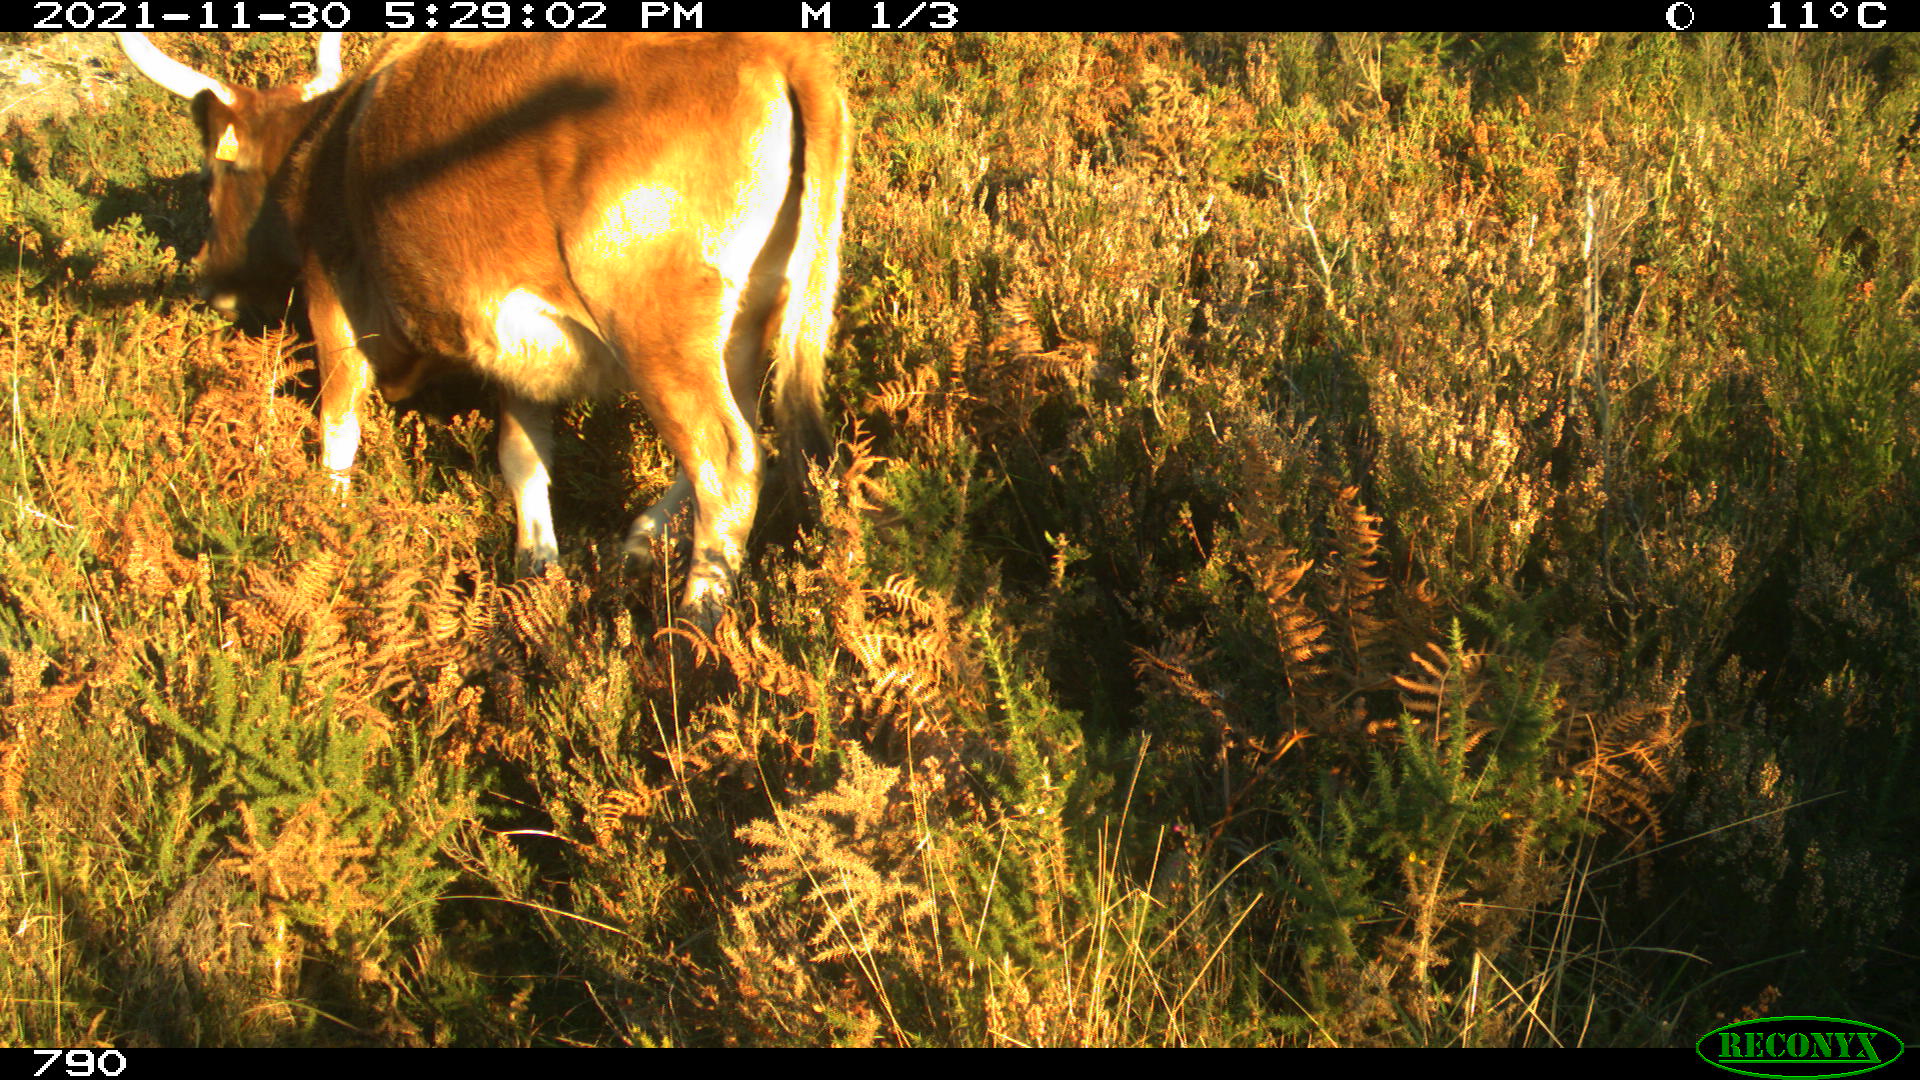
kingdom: Animalia
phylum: Chordata
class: Mammalia
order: Artiodactyla
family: Bovidae
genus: Bos
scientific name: Bos taurus
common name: Domesticated cattle
